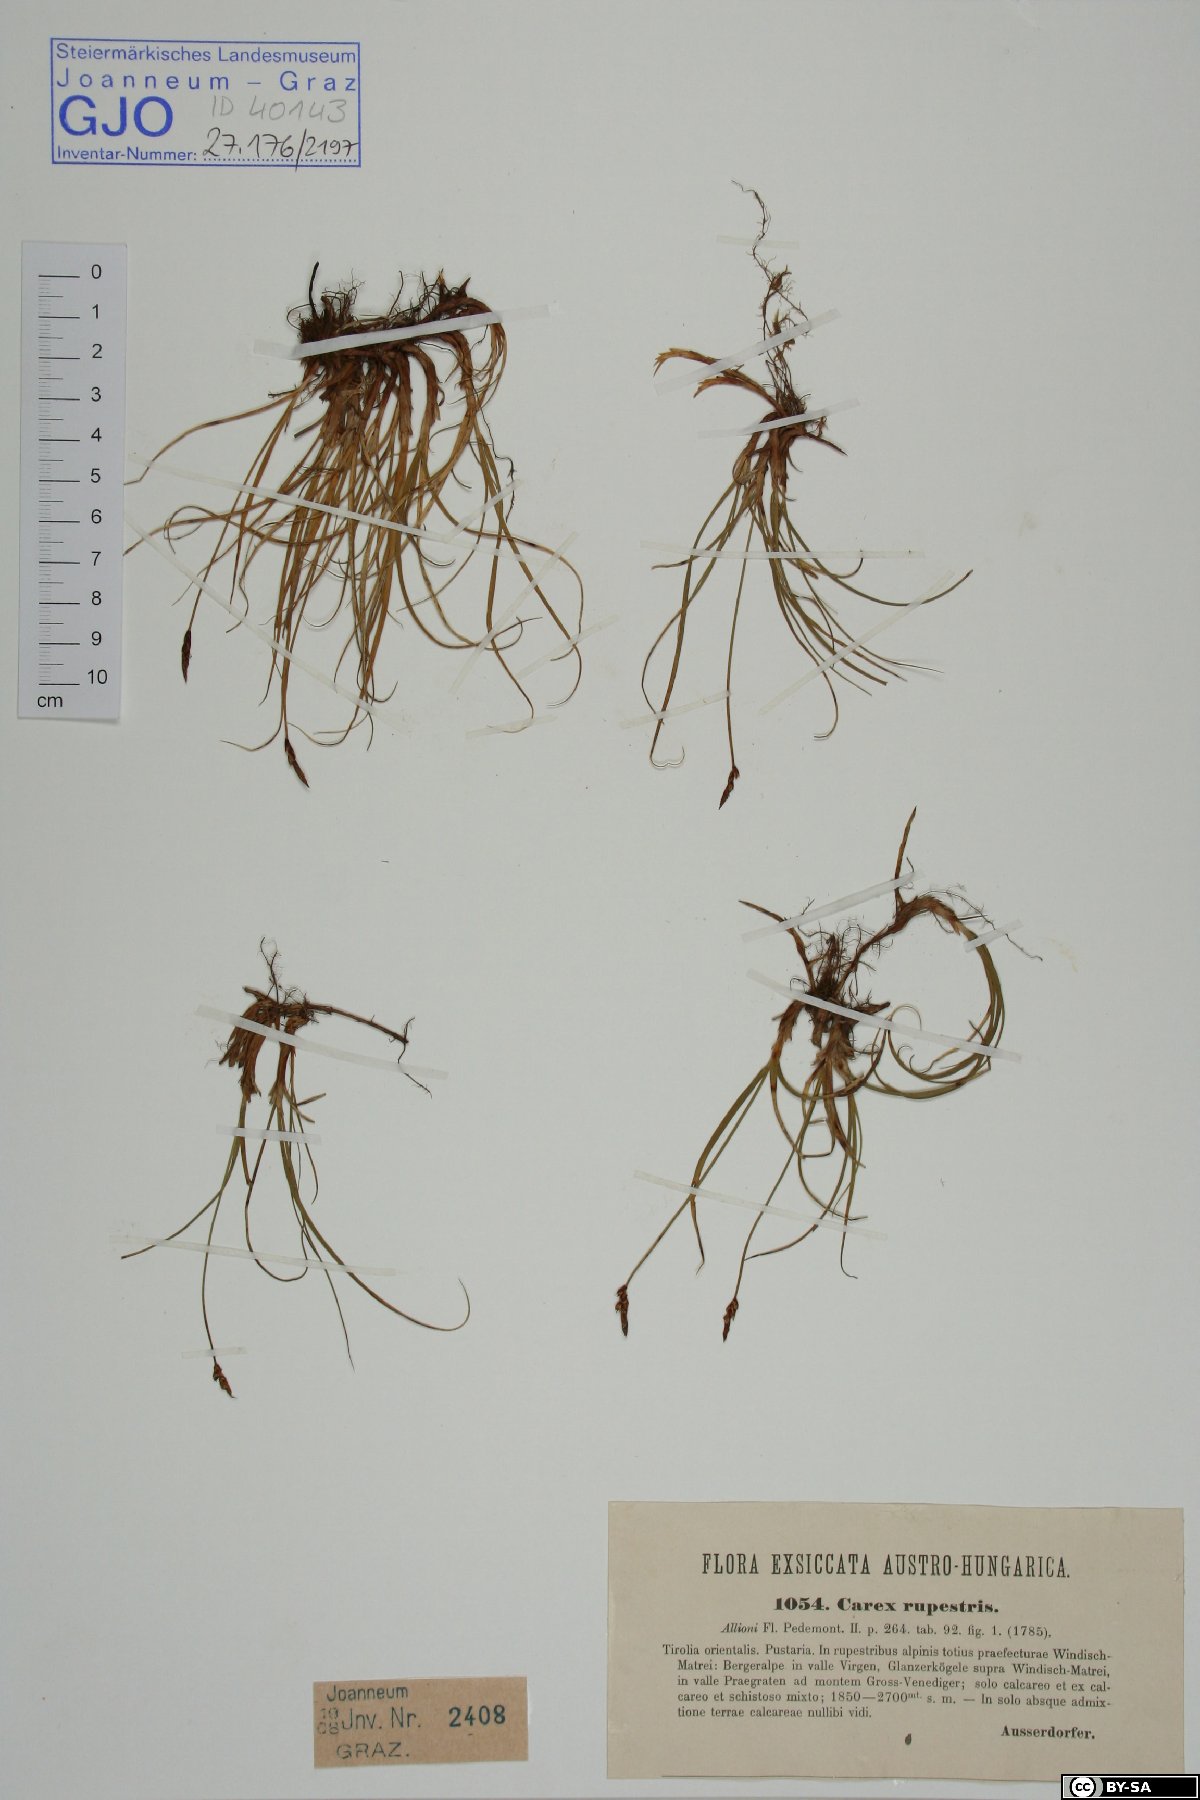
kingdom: Plantae
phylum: Tracheophyta
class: Liliopsida
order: Poales
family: Cyperaceae
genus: Carex
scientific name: Carex rupestris
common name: Rock sedge
